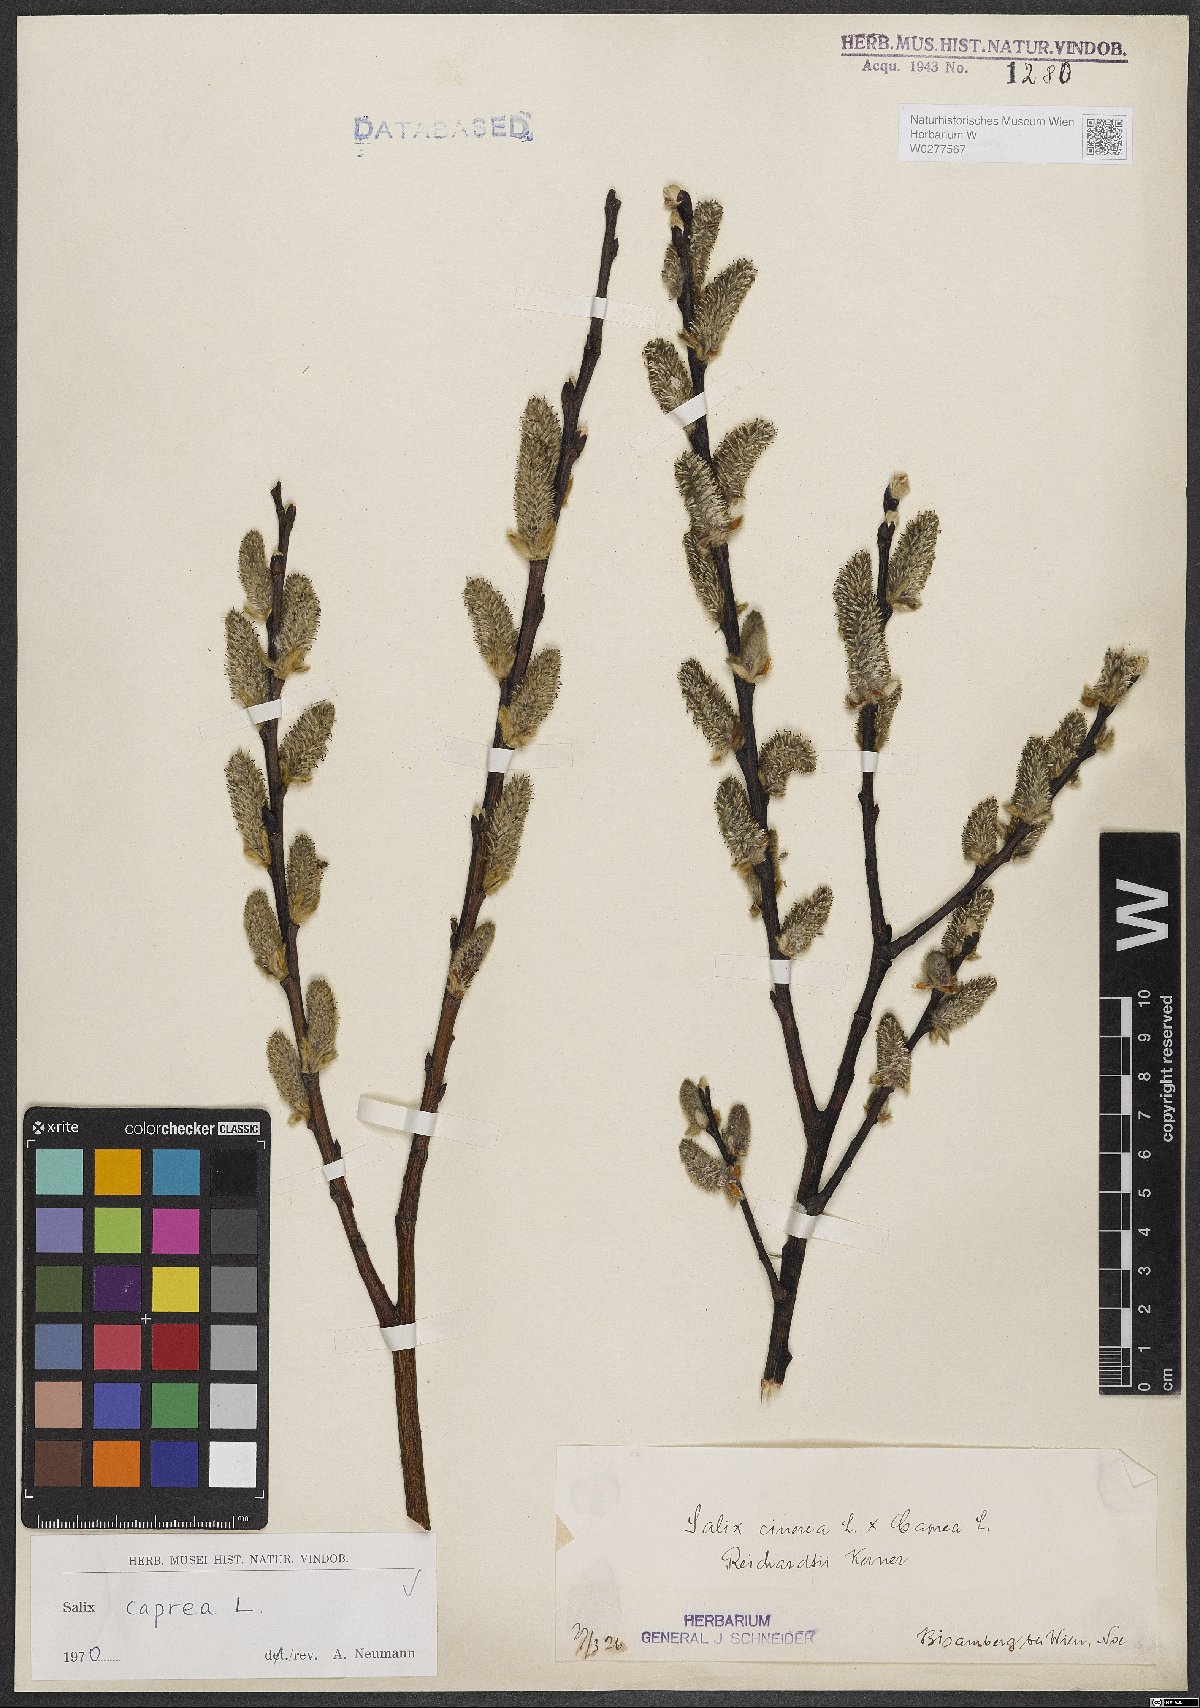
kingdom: Plantae
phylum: Tracheophyta
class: Magnoliopsida
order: Malpighiales
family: Salicaceae
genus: Salix
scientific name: Salix caprea
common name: Goat willow
